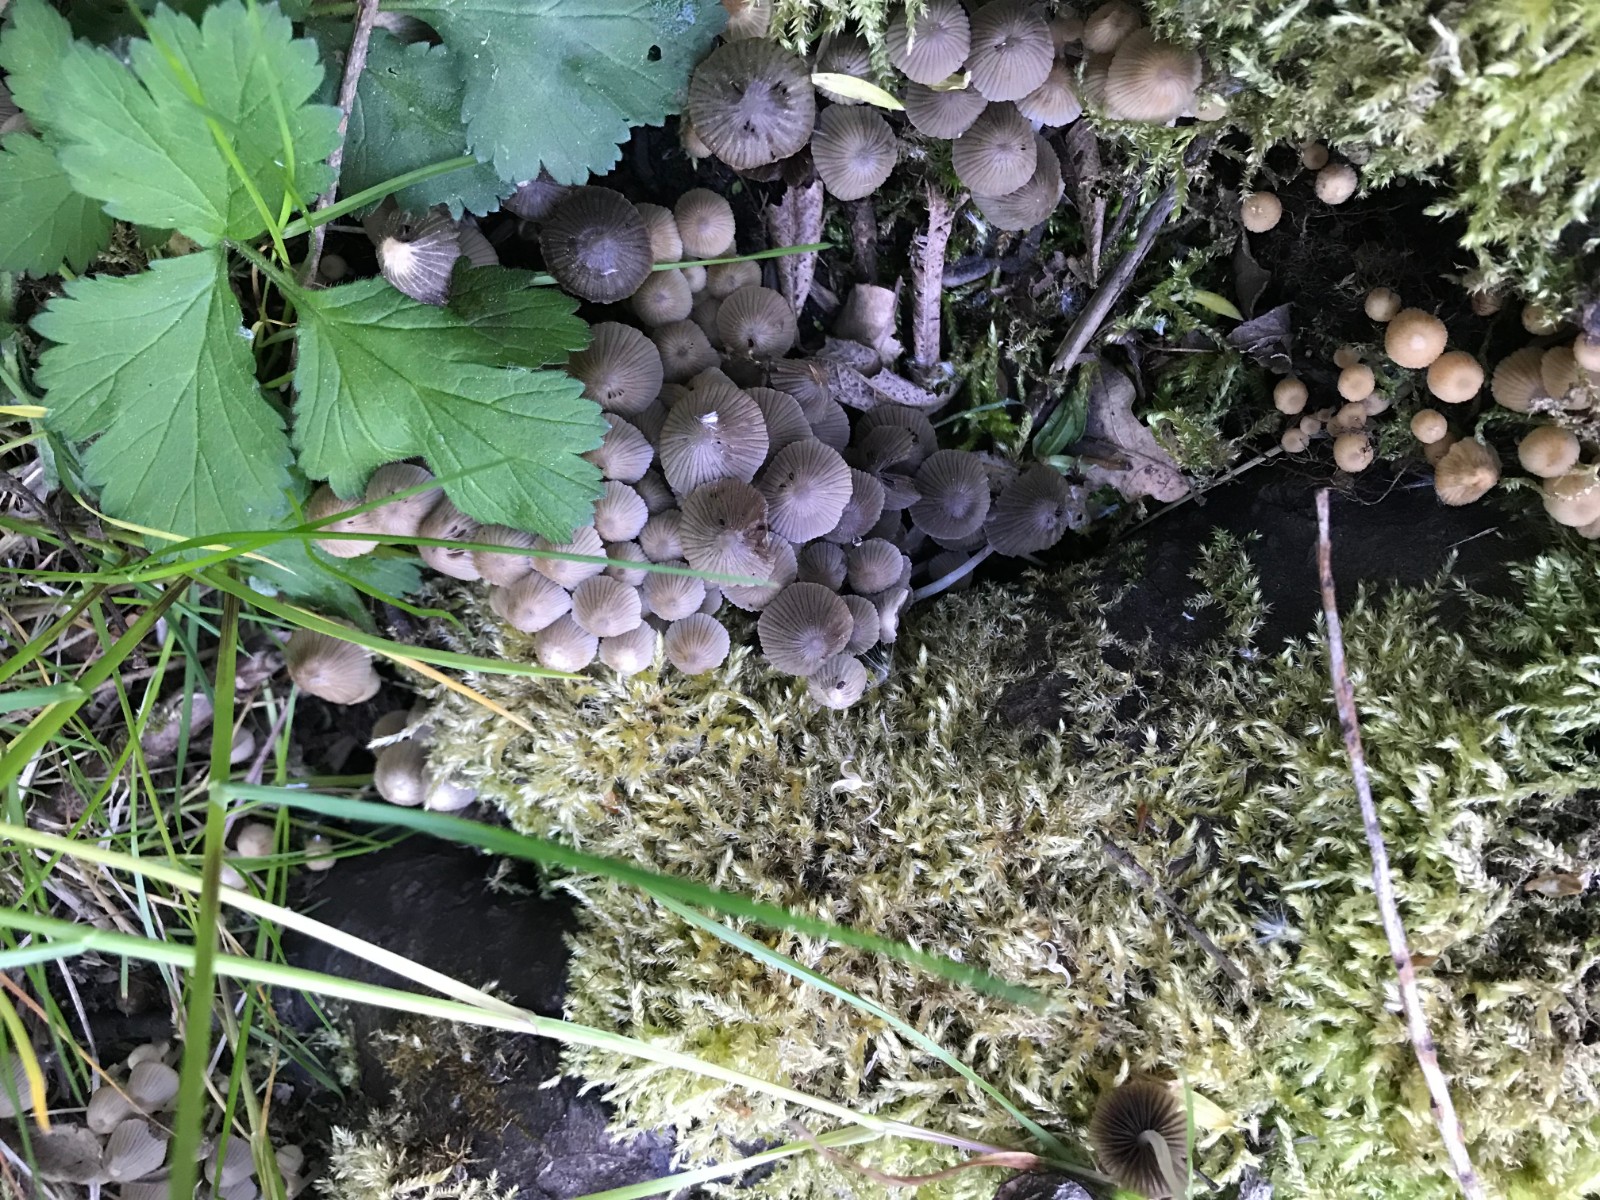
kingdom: Fungi
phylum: Basidiomycota
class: Agaricomycetes
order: Agaricales
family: Psathyrellaceae
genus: Coprinellus
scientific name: Coprinellus disseminatus
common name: bredsået blækhat
